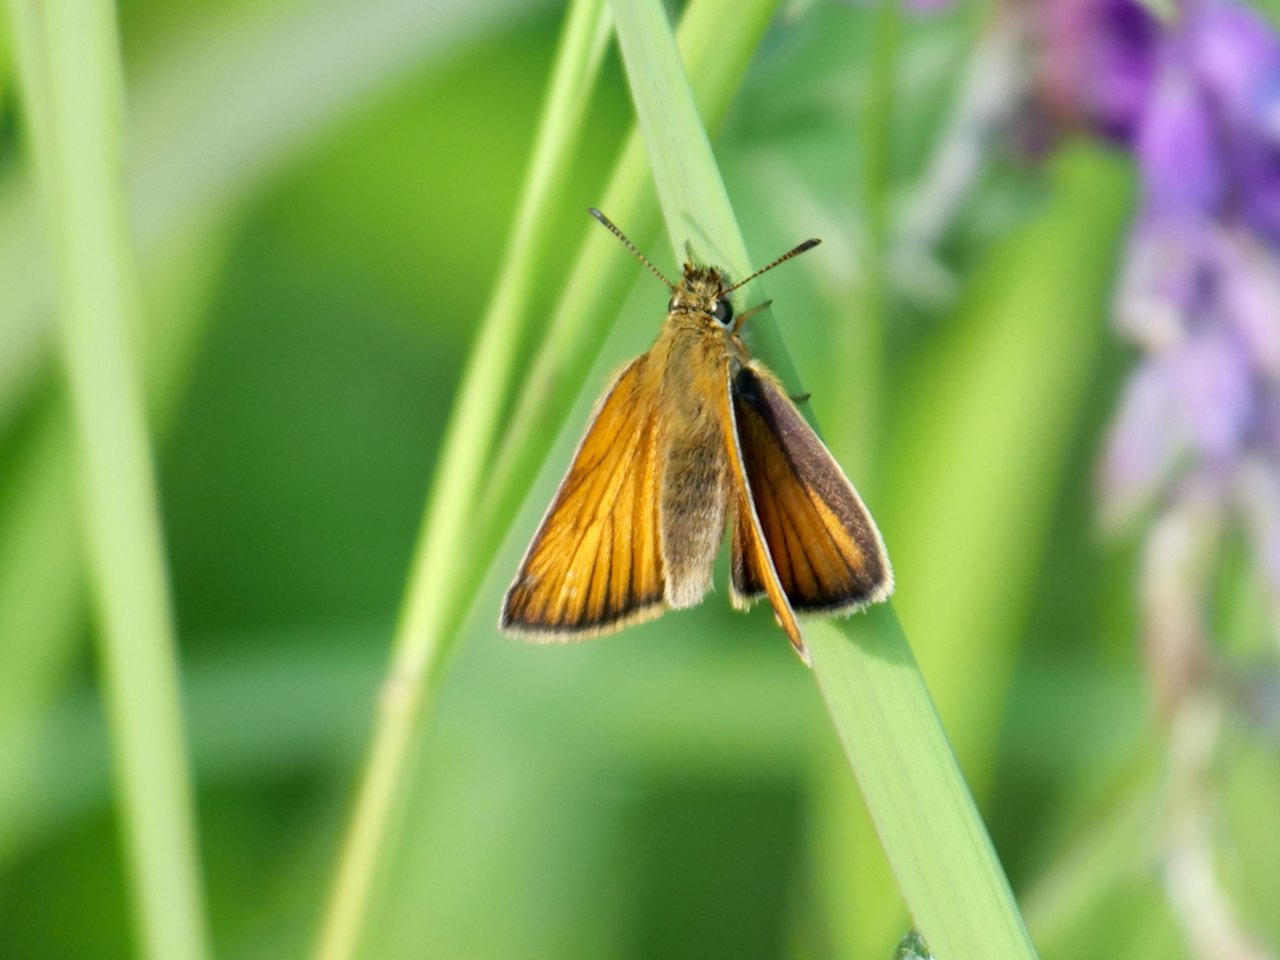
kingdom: Animalia
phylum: Arthropoda
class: Insecta
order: Lepidoptera
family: Hesperiidae
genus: Thymelicus
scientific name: Thymelicus lineola
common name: European Skipper
